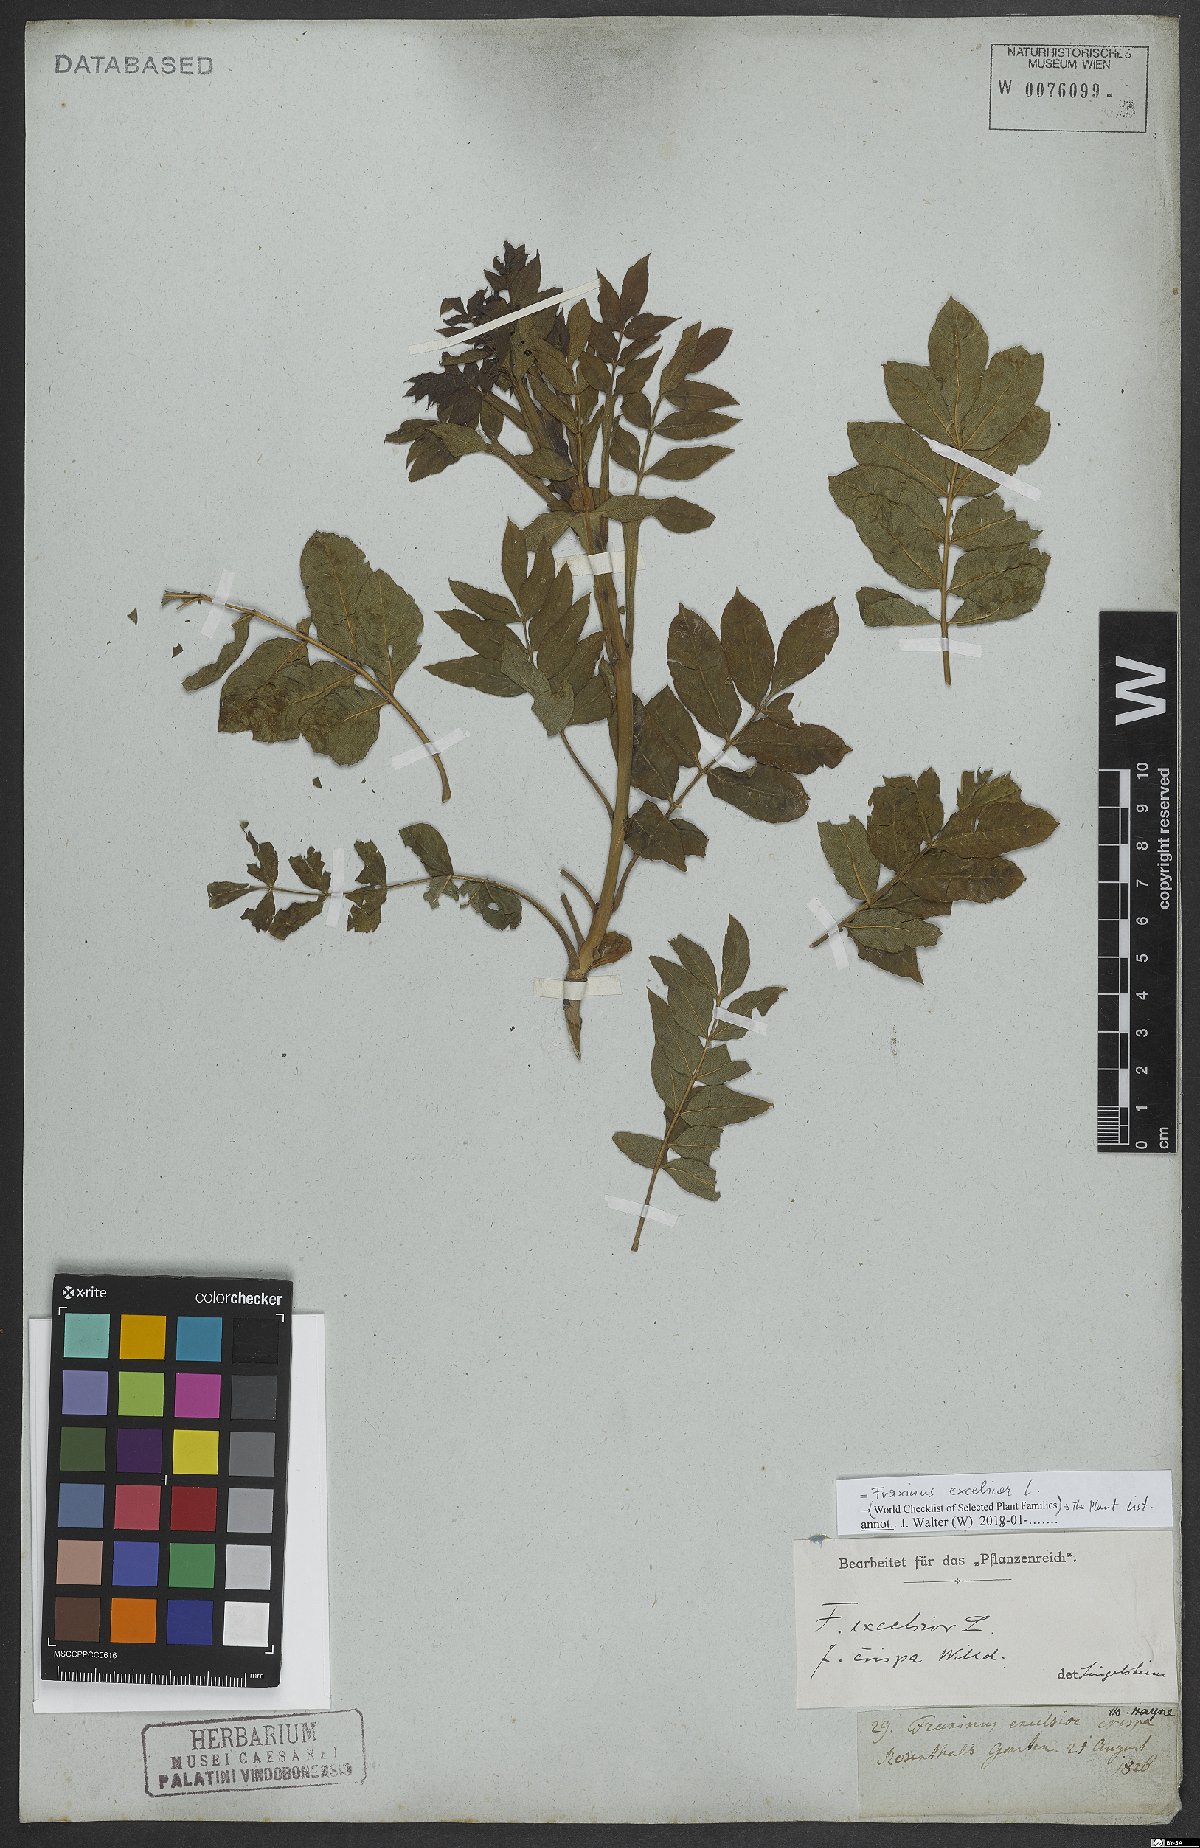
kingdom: Plantae
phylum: Tracheophyta
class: Magnoliopsida
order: Lamiales
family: Oleaceae
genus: Fraxinus
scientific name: Fraxinus excelsior
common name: European ash
